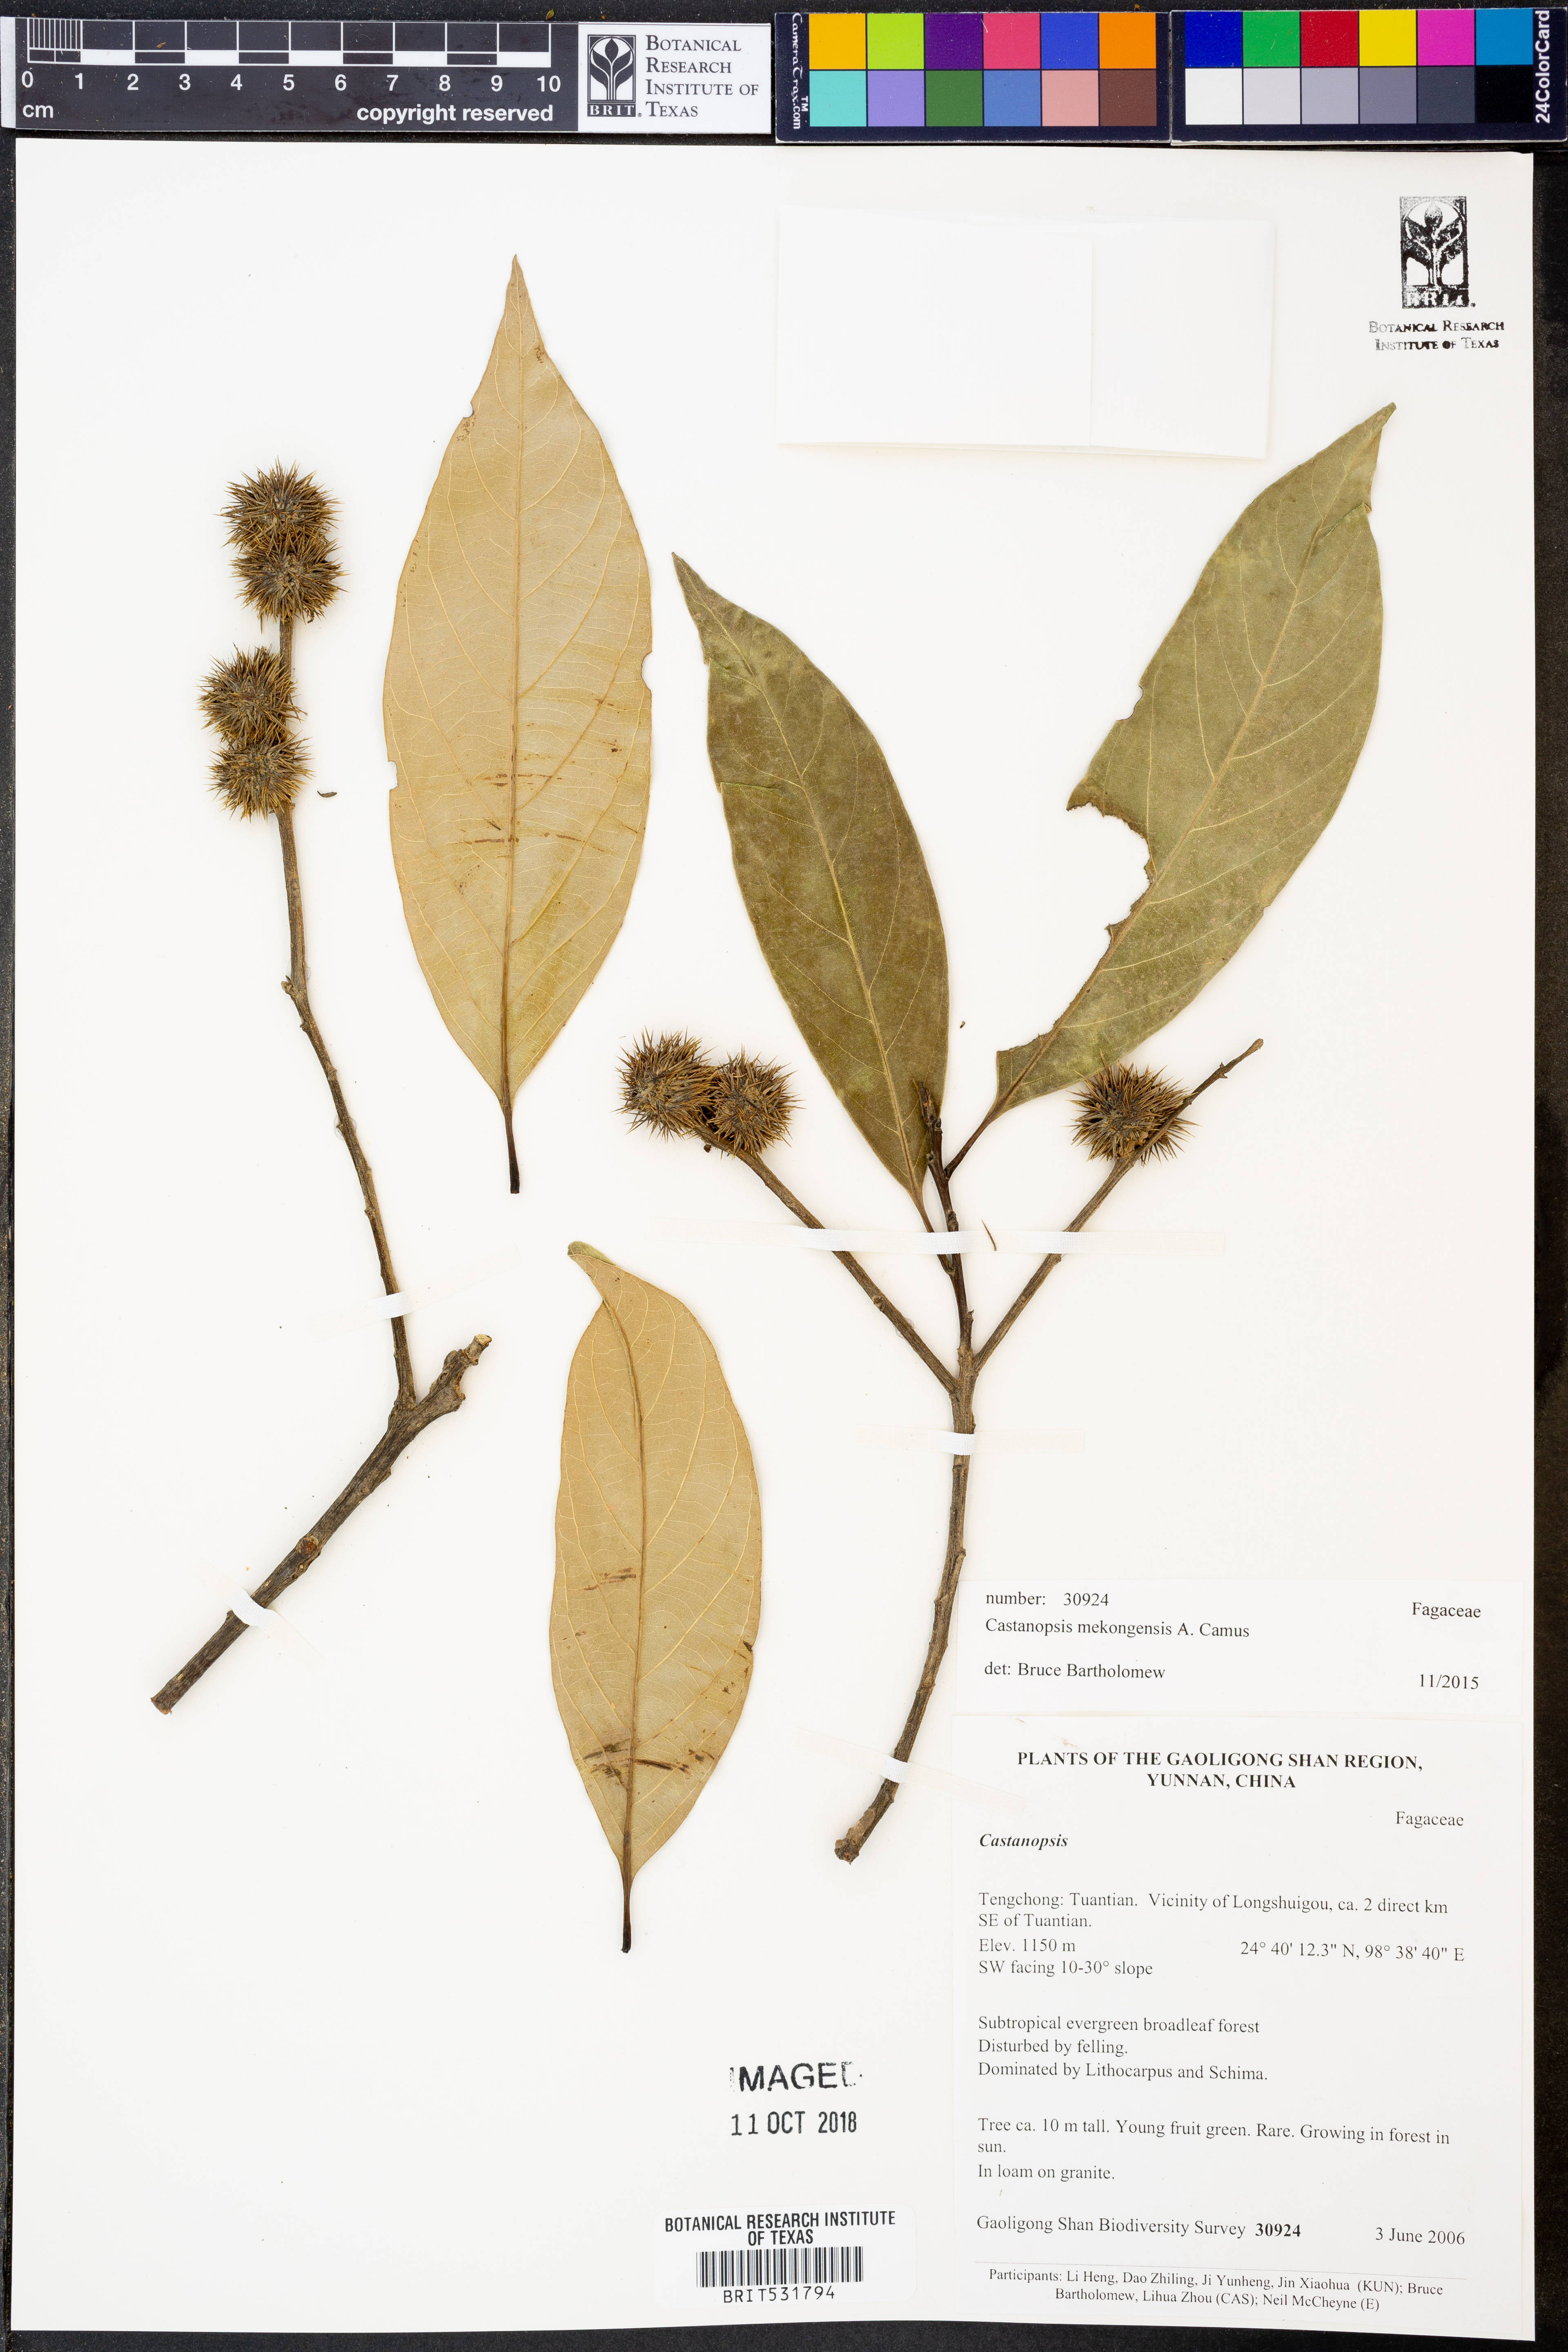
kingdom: Plantae
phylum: Tracheophyta
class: Magnoliopsida
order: Fagales
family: Fagaceae
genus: Castanopsis
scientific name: Castanopsis mekongensis
